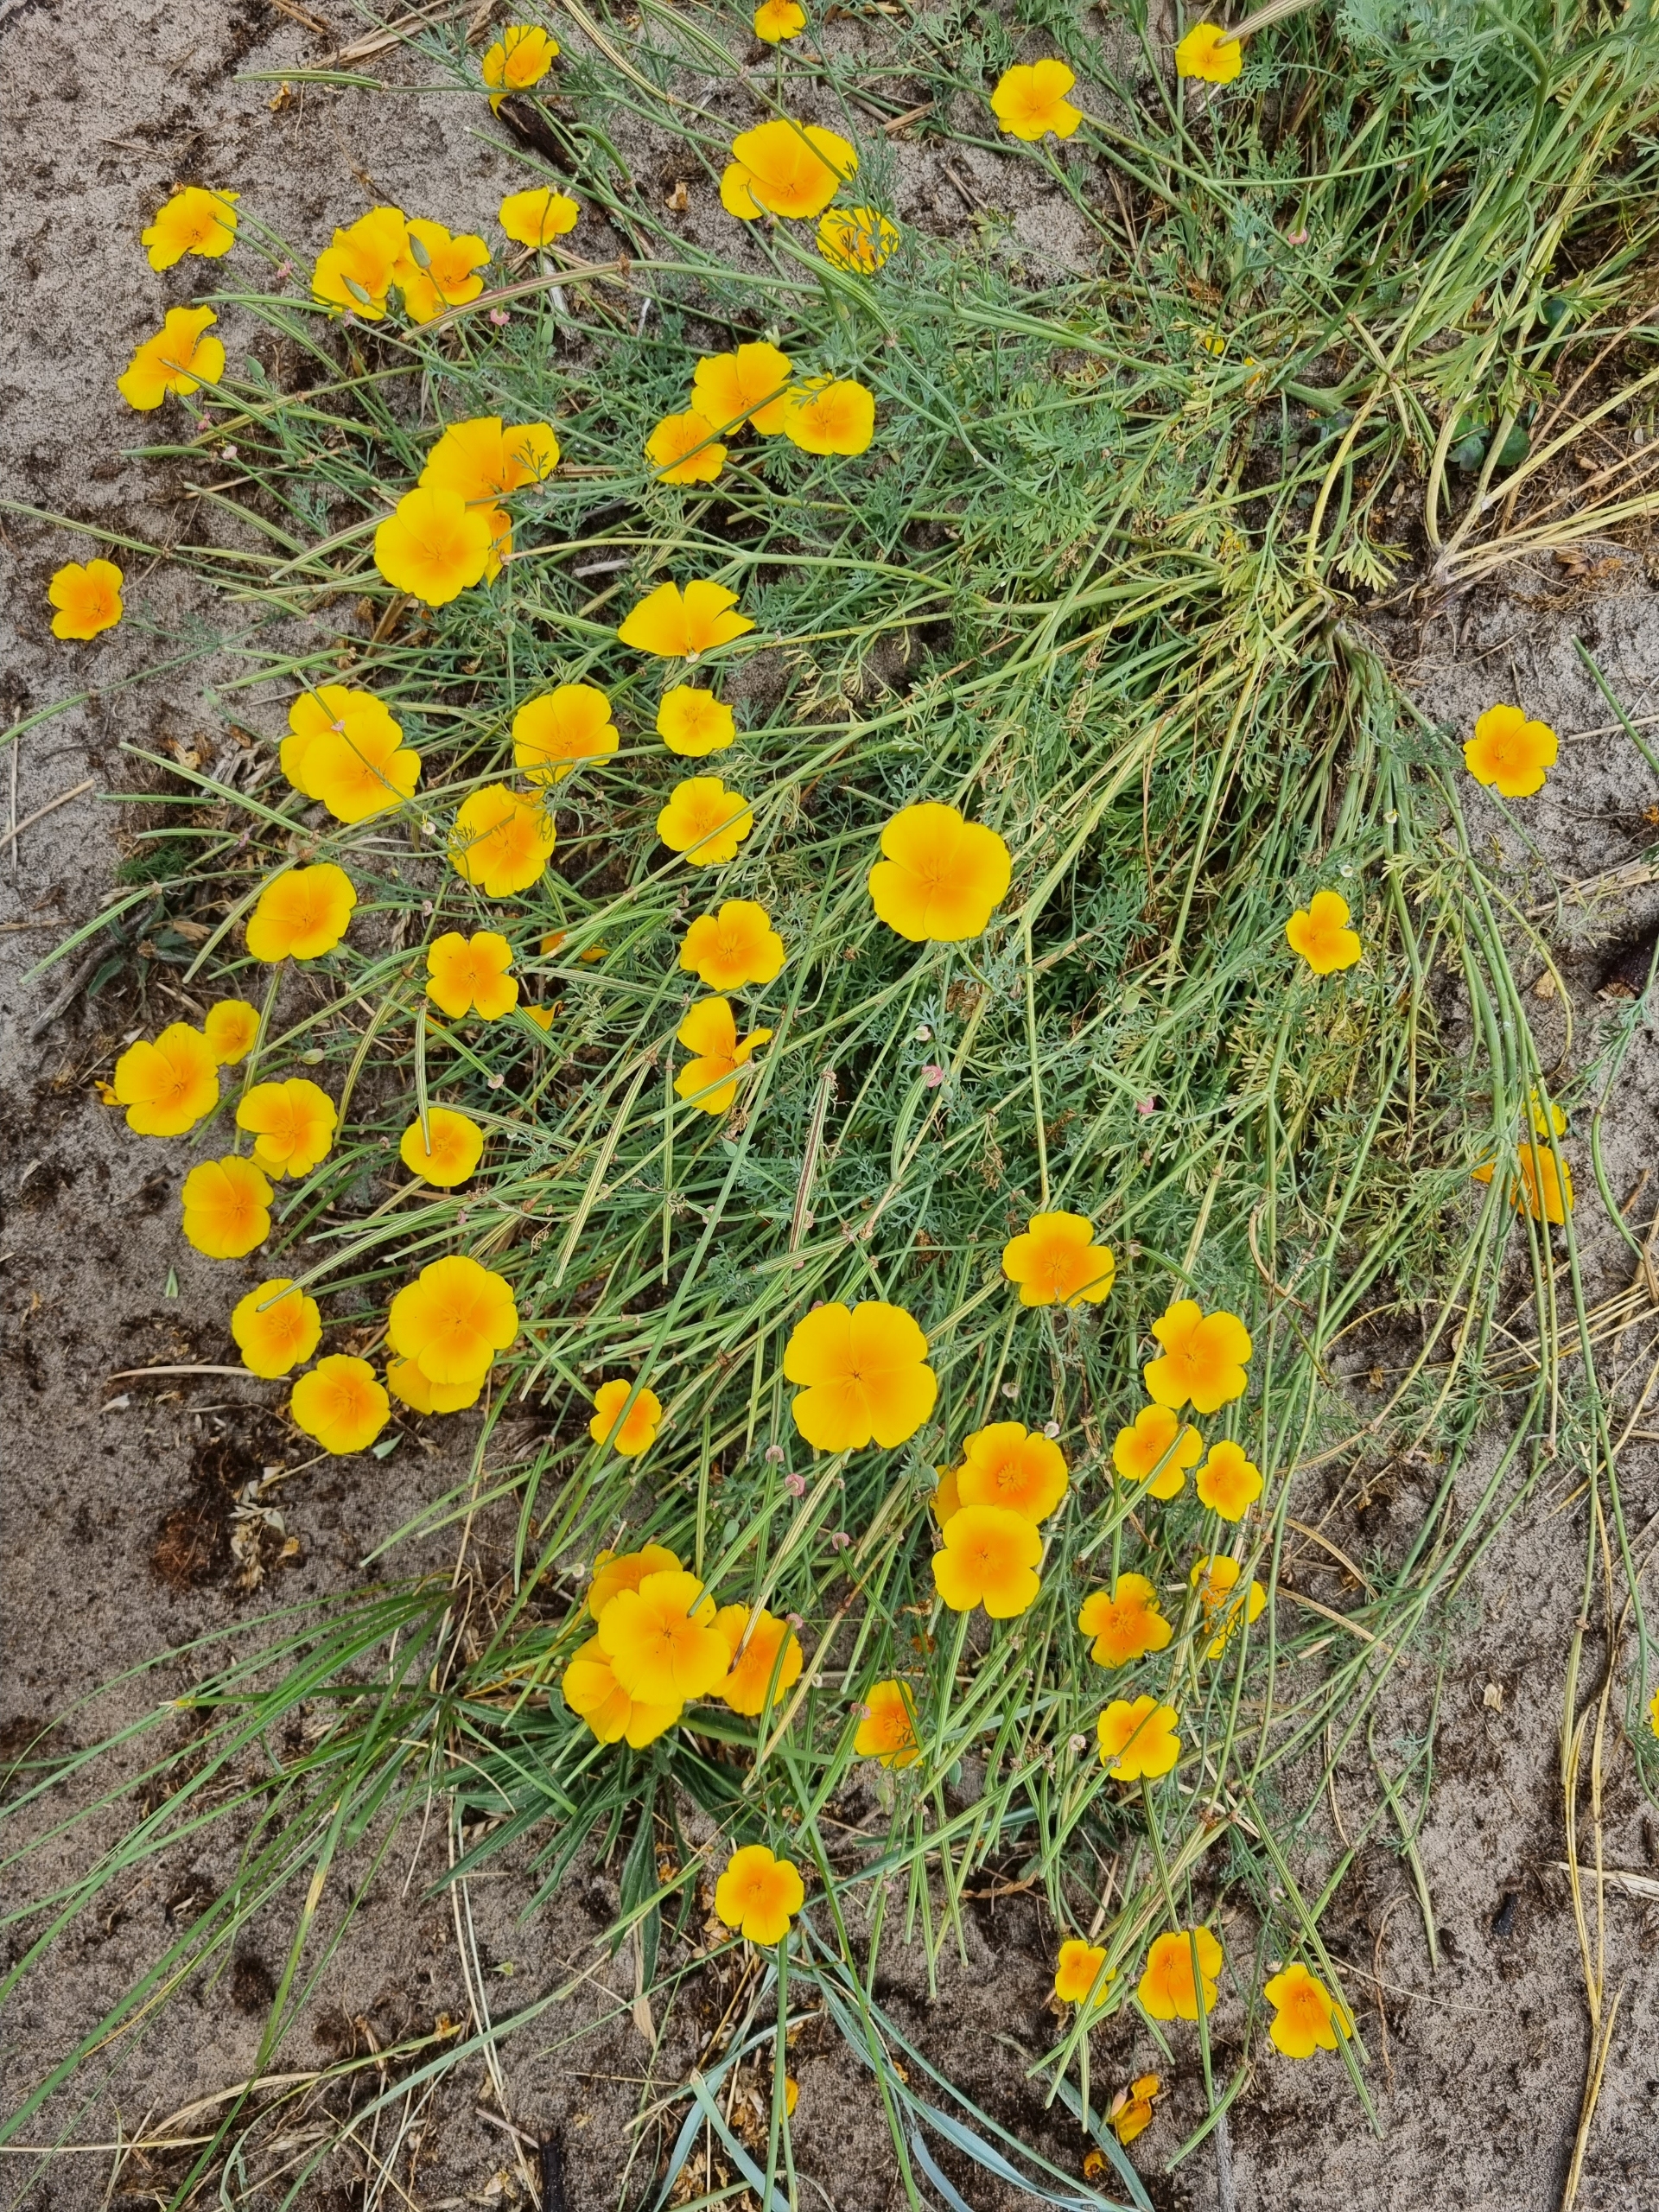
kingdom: Plantae
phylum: Tracheophyta
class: Magnoliopsida
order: Ranunculales
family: Papaveraceae
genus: Eschscholzia
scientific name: Eschscholzia californica
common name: Guldvalmue
